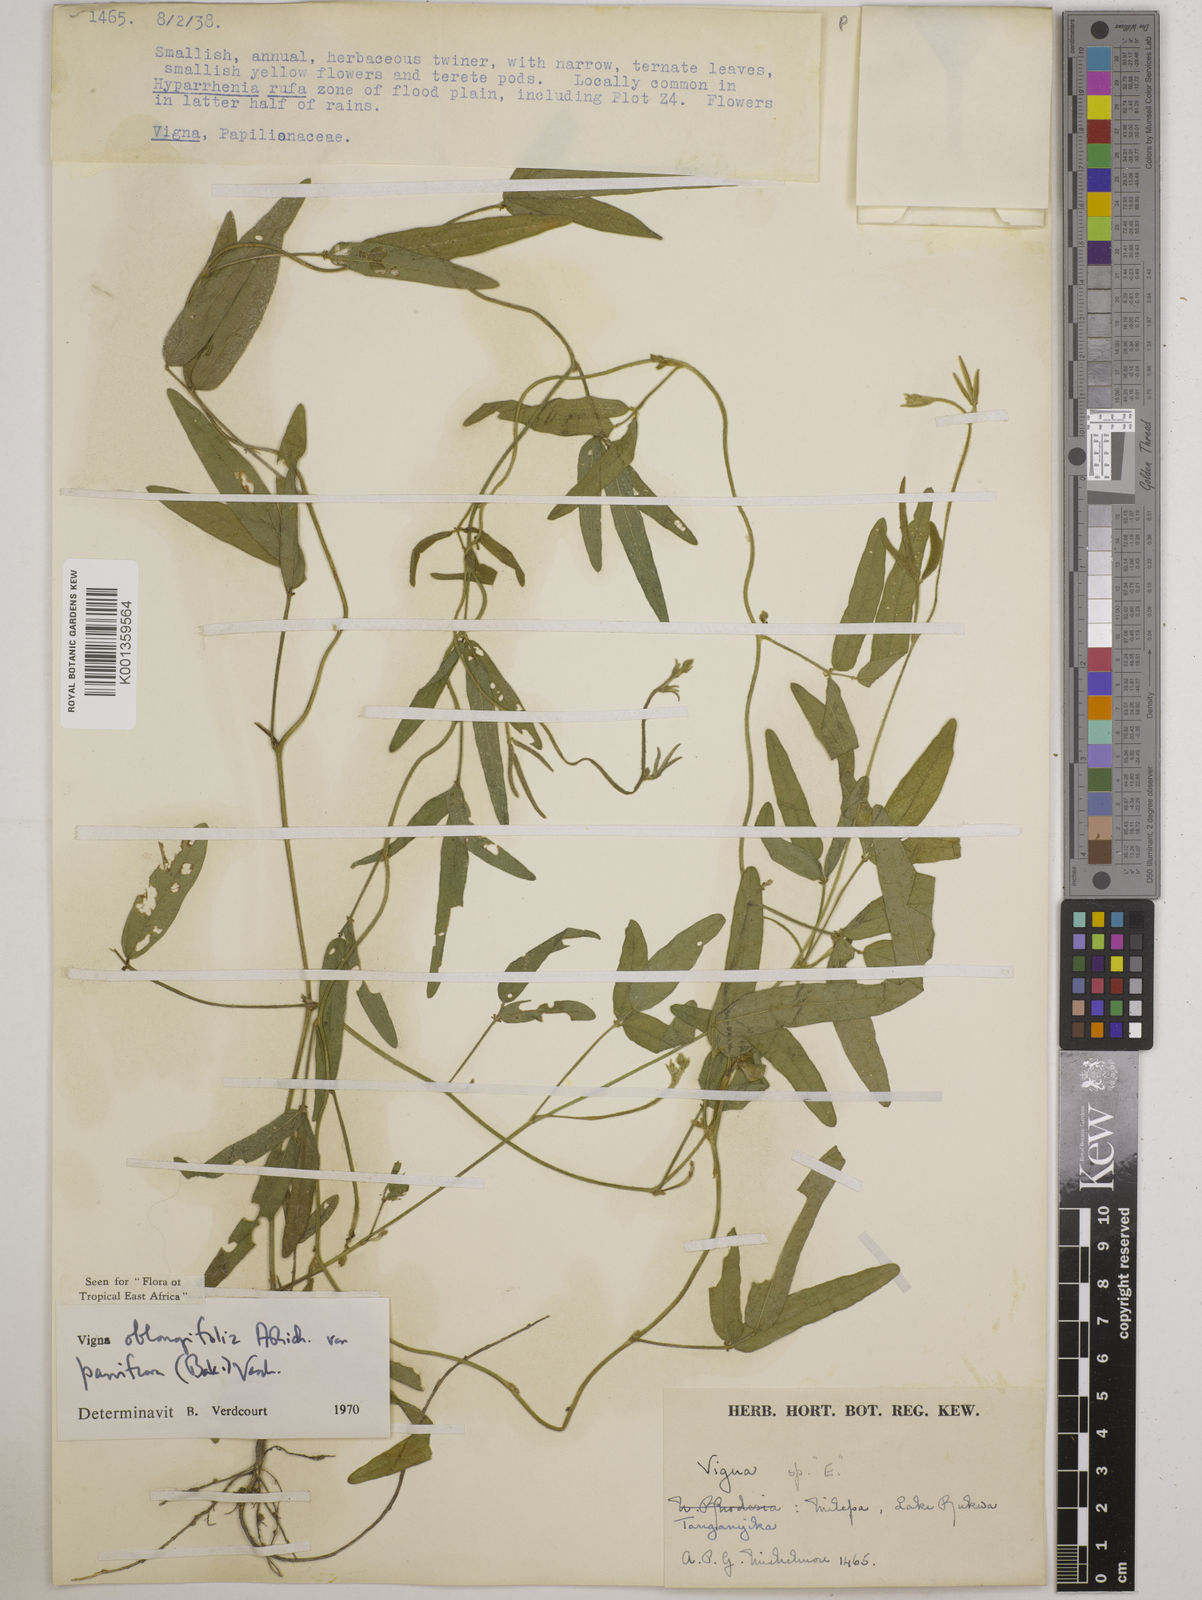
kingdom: Plantae
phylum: Tracheophyta
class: Magnoliopsida
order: Fabales
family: Fabaceae
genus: Vigna
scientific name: Vigna
